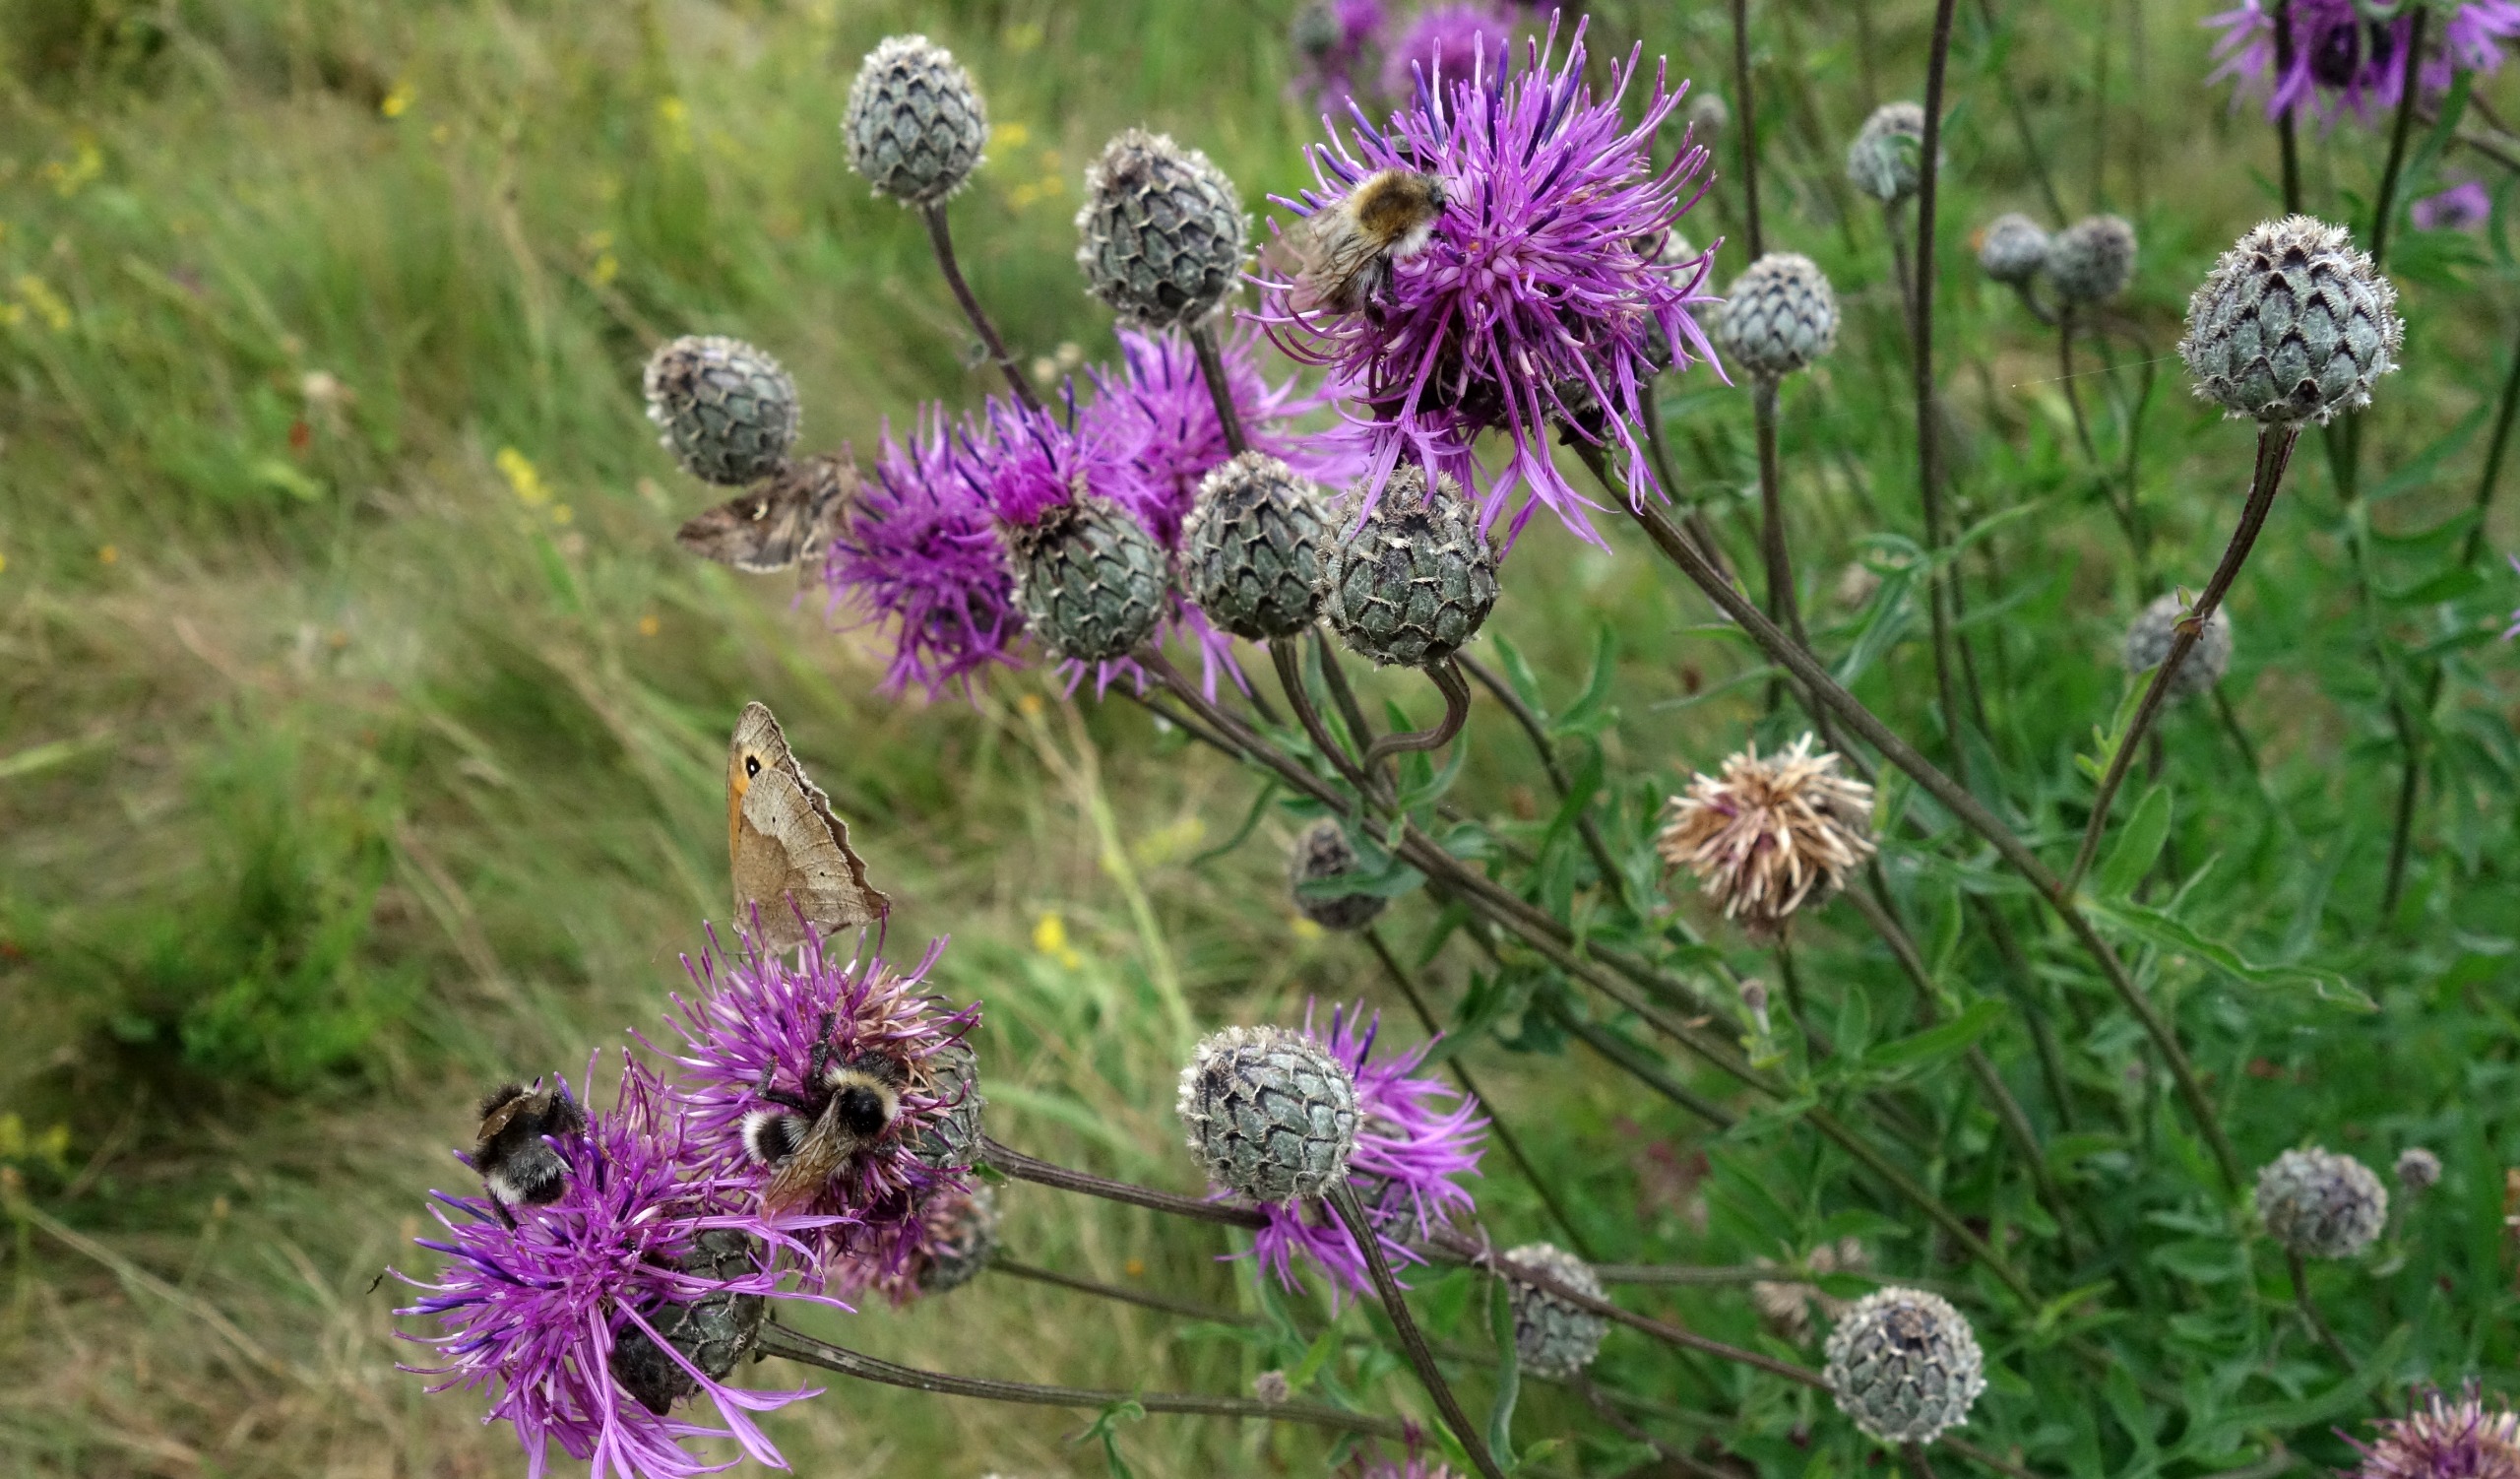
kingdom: Plantae
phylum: Tracheophyta
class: Magnoliopsida
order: Asterales
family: Asteraceae
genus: Centaurea
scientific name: Centaurea scabiosa
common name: Stor knopurt
